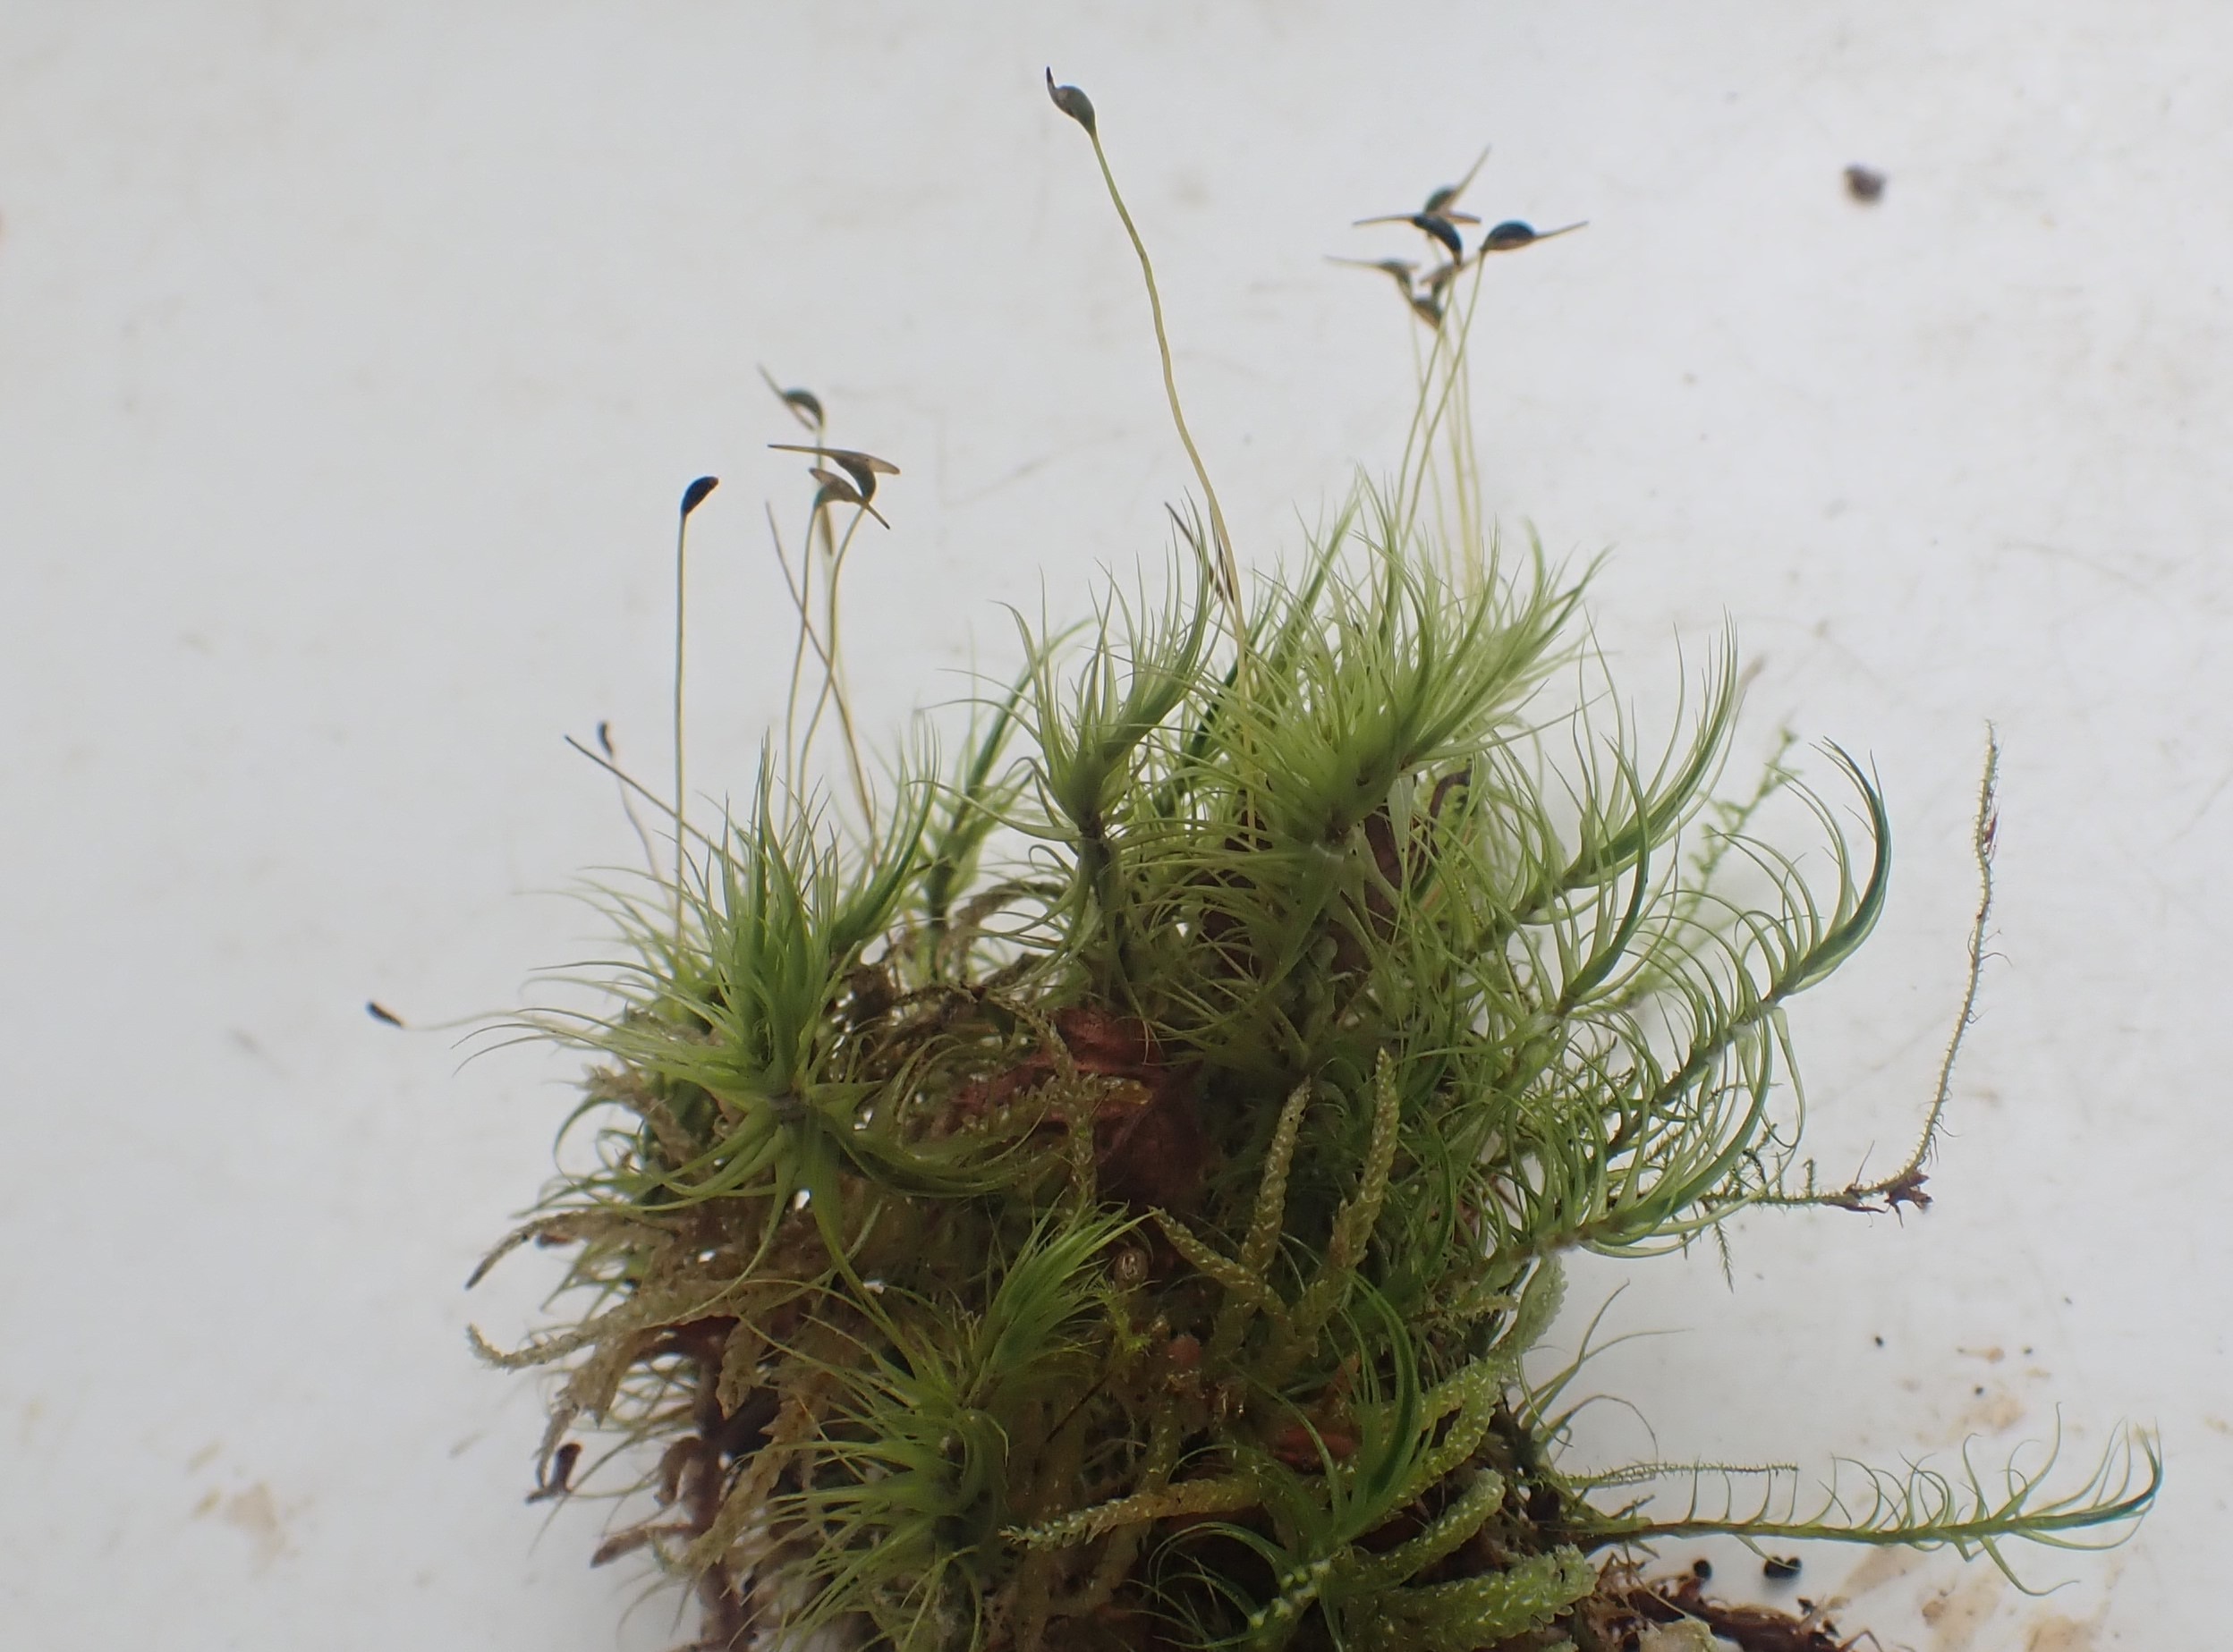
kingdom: Plantae
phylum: Bryophyta
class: Bryopsida
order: Dicranales
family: Dicranaceae
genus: Dicranum
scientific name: Dicranum
